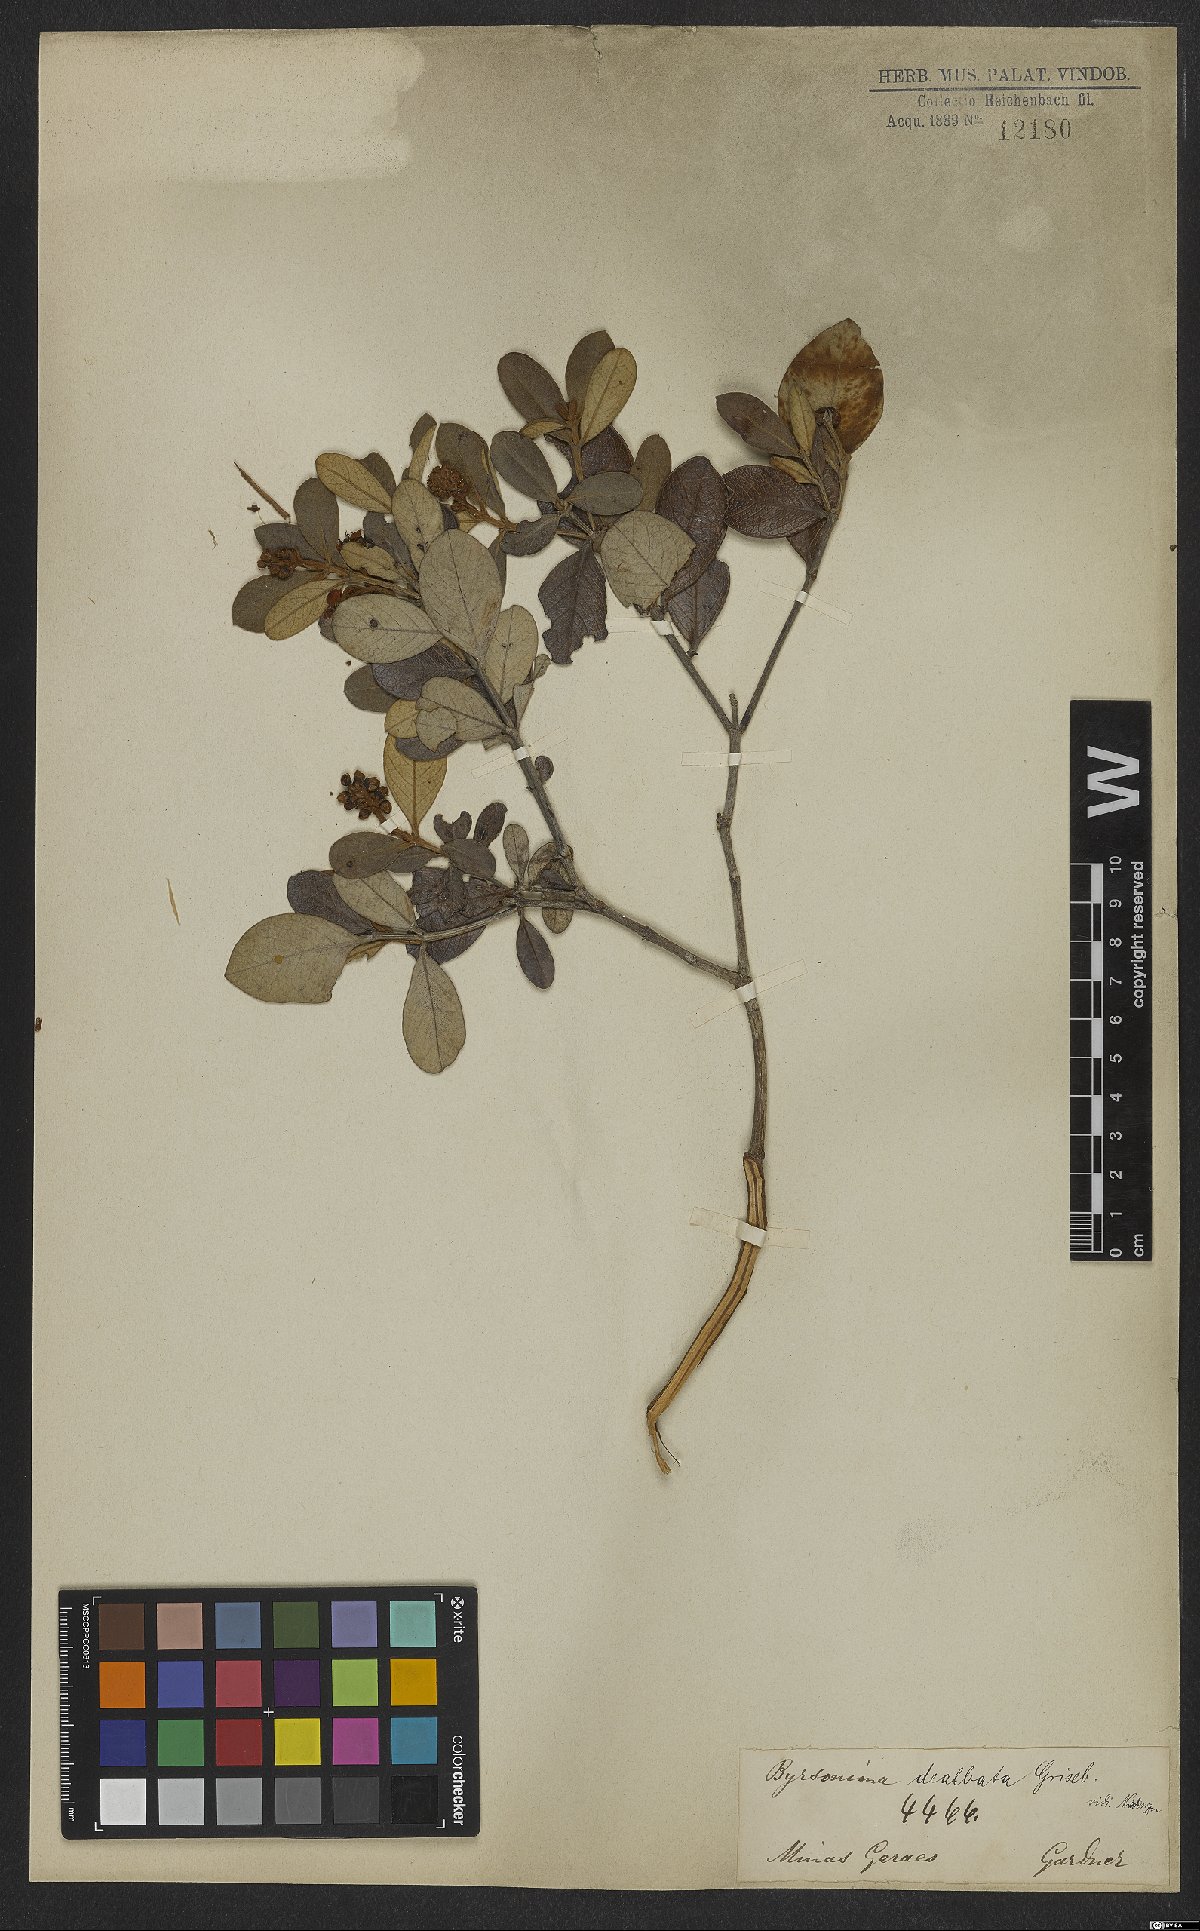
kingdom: Plantae
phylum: Tracheophyta
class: Magnoliopsida
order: Malpighiales
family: Malpighiaceae
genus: Byrsonima
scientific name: Byrsonima dealbata
